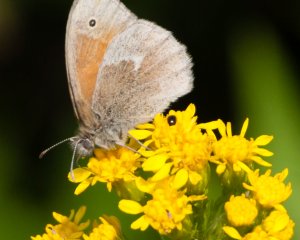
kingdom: Animalia
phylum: Arthropoda
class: Insecta
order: Lepidoptera
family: Nymphalidae
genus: Coenonympha
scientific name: Coenonympha tullia
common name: Large Heath
